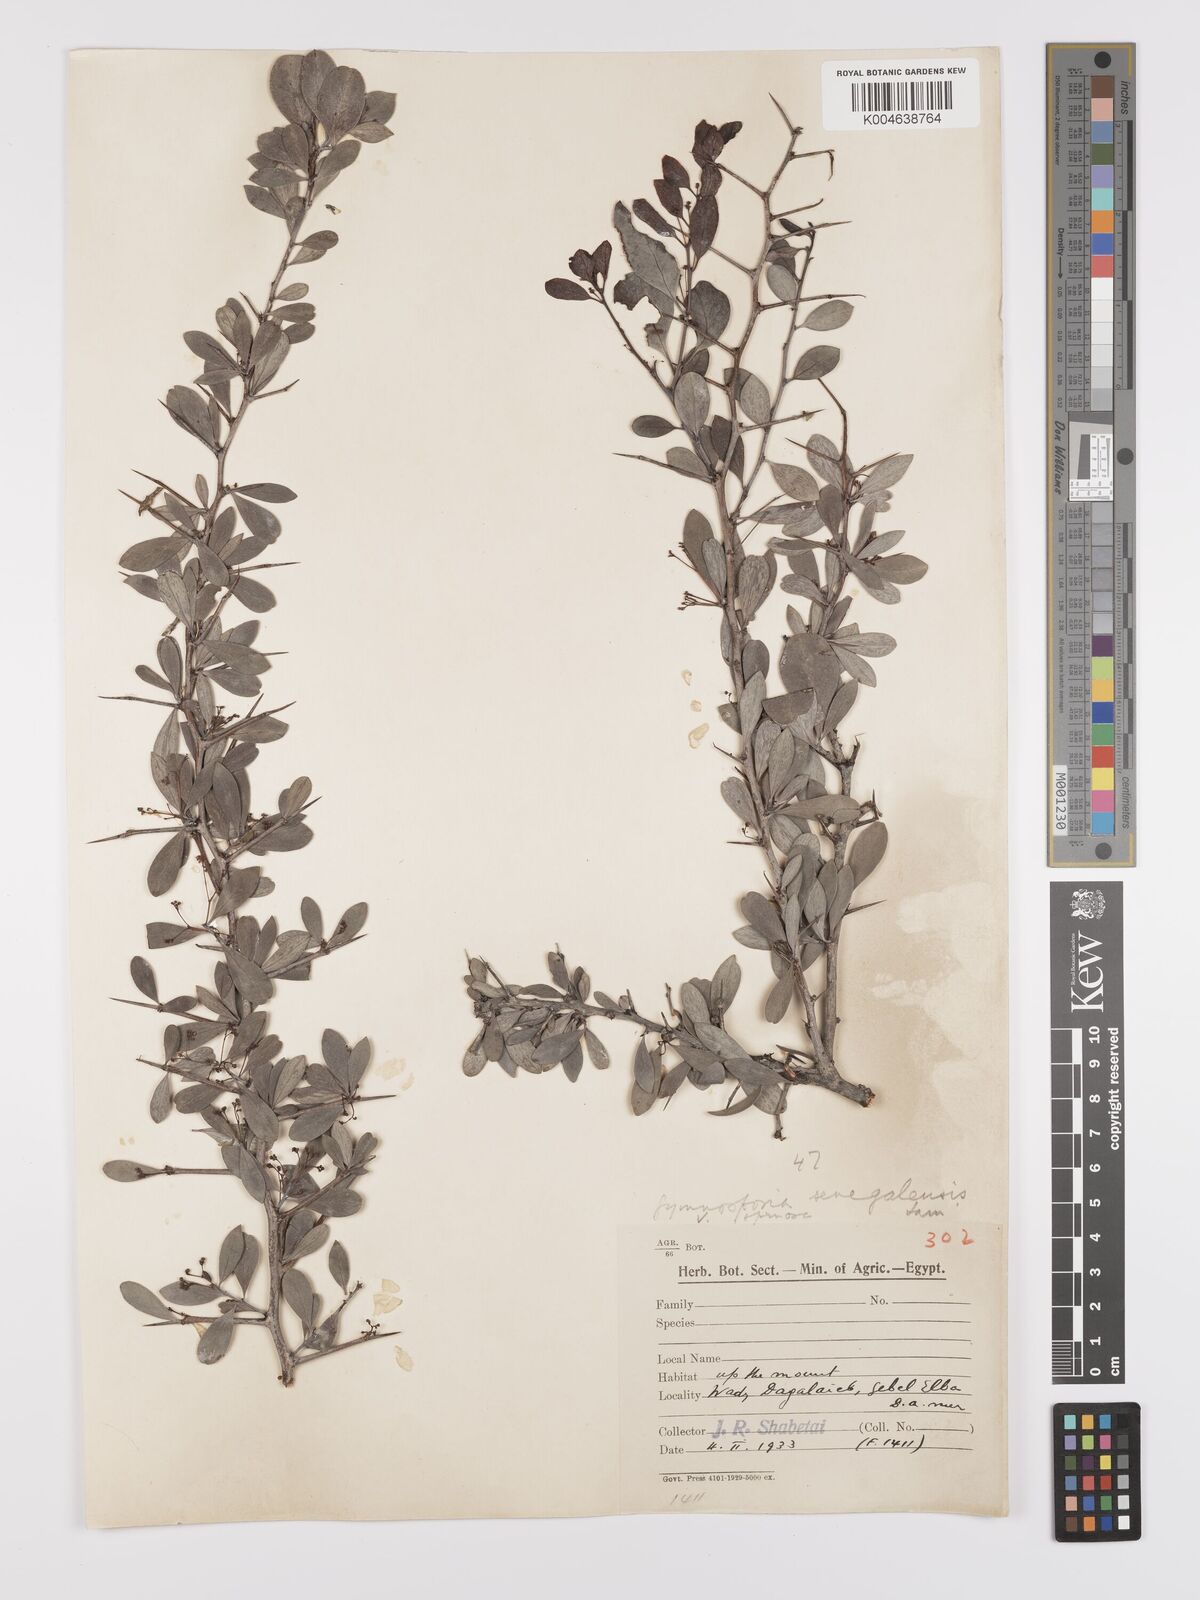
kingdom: Plantae
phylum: Tracheophyta
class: Magnoliopsida
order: Celastrales
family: Celastraceae
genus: Gymnosporia
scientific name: Gymnosporia senegalensis
